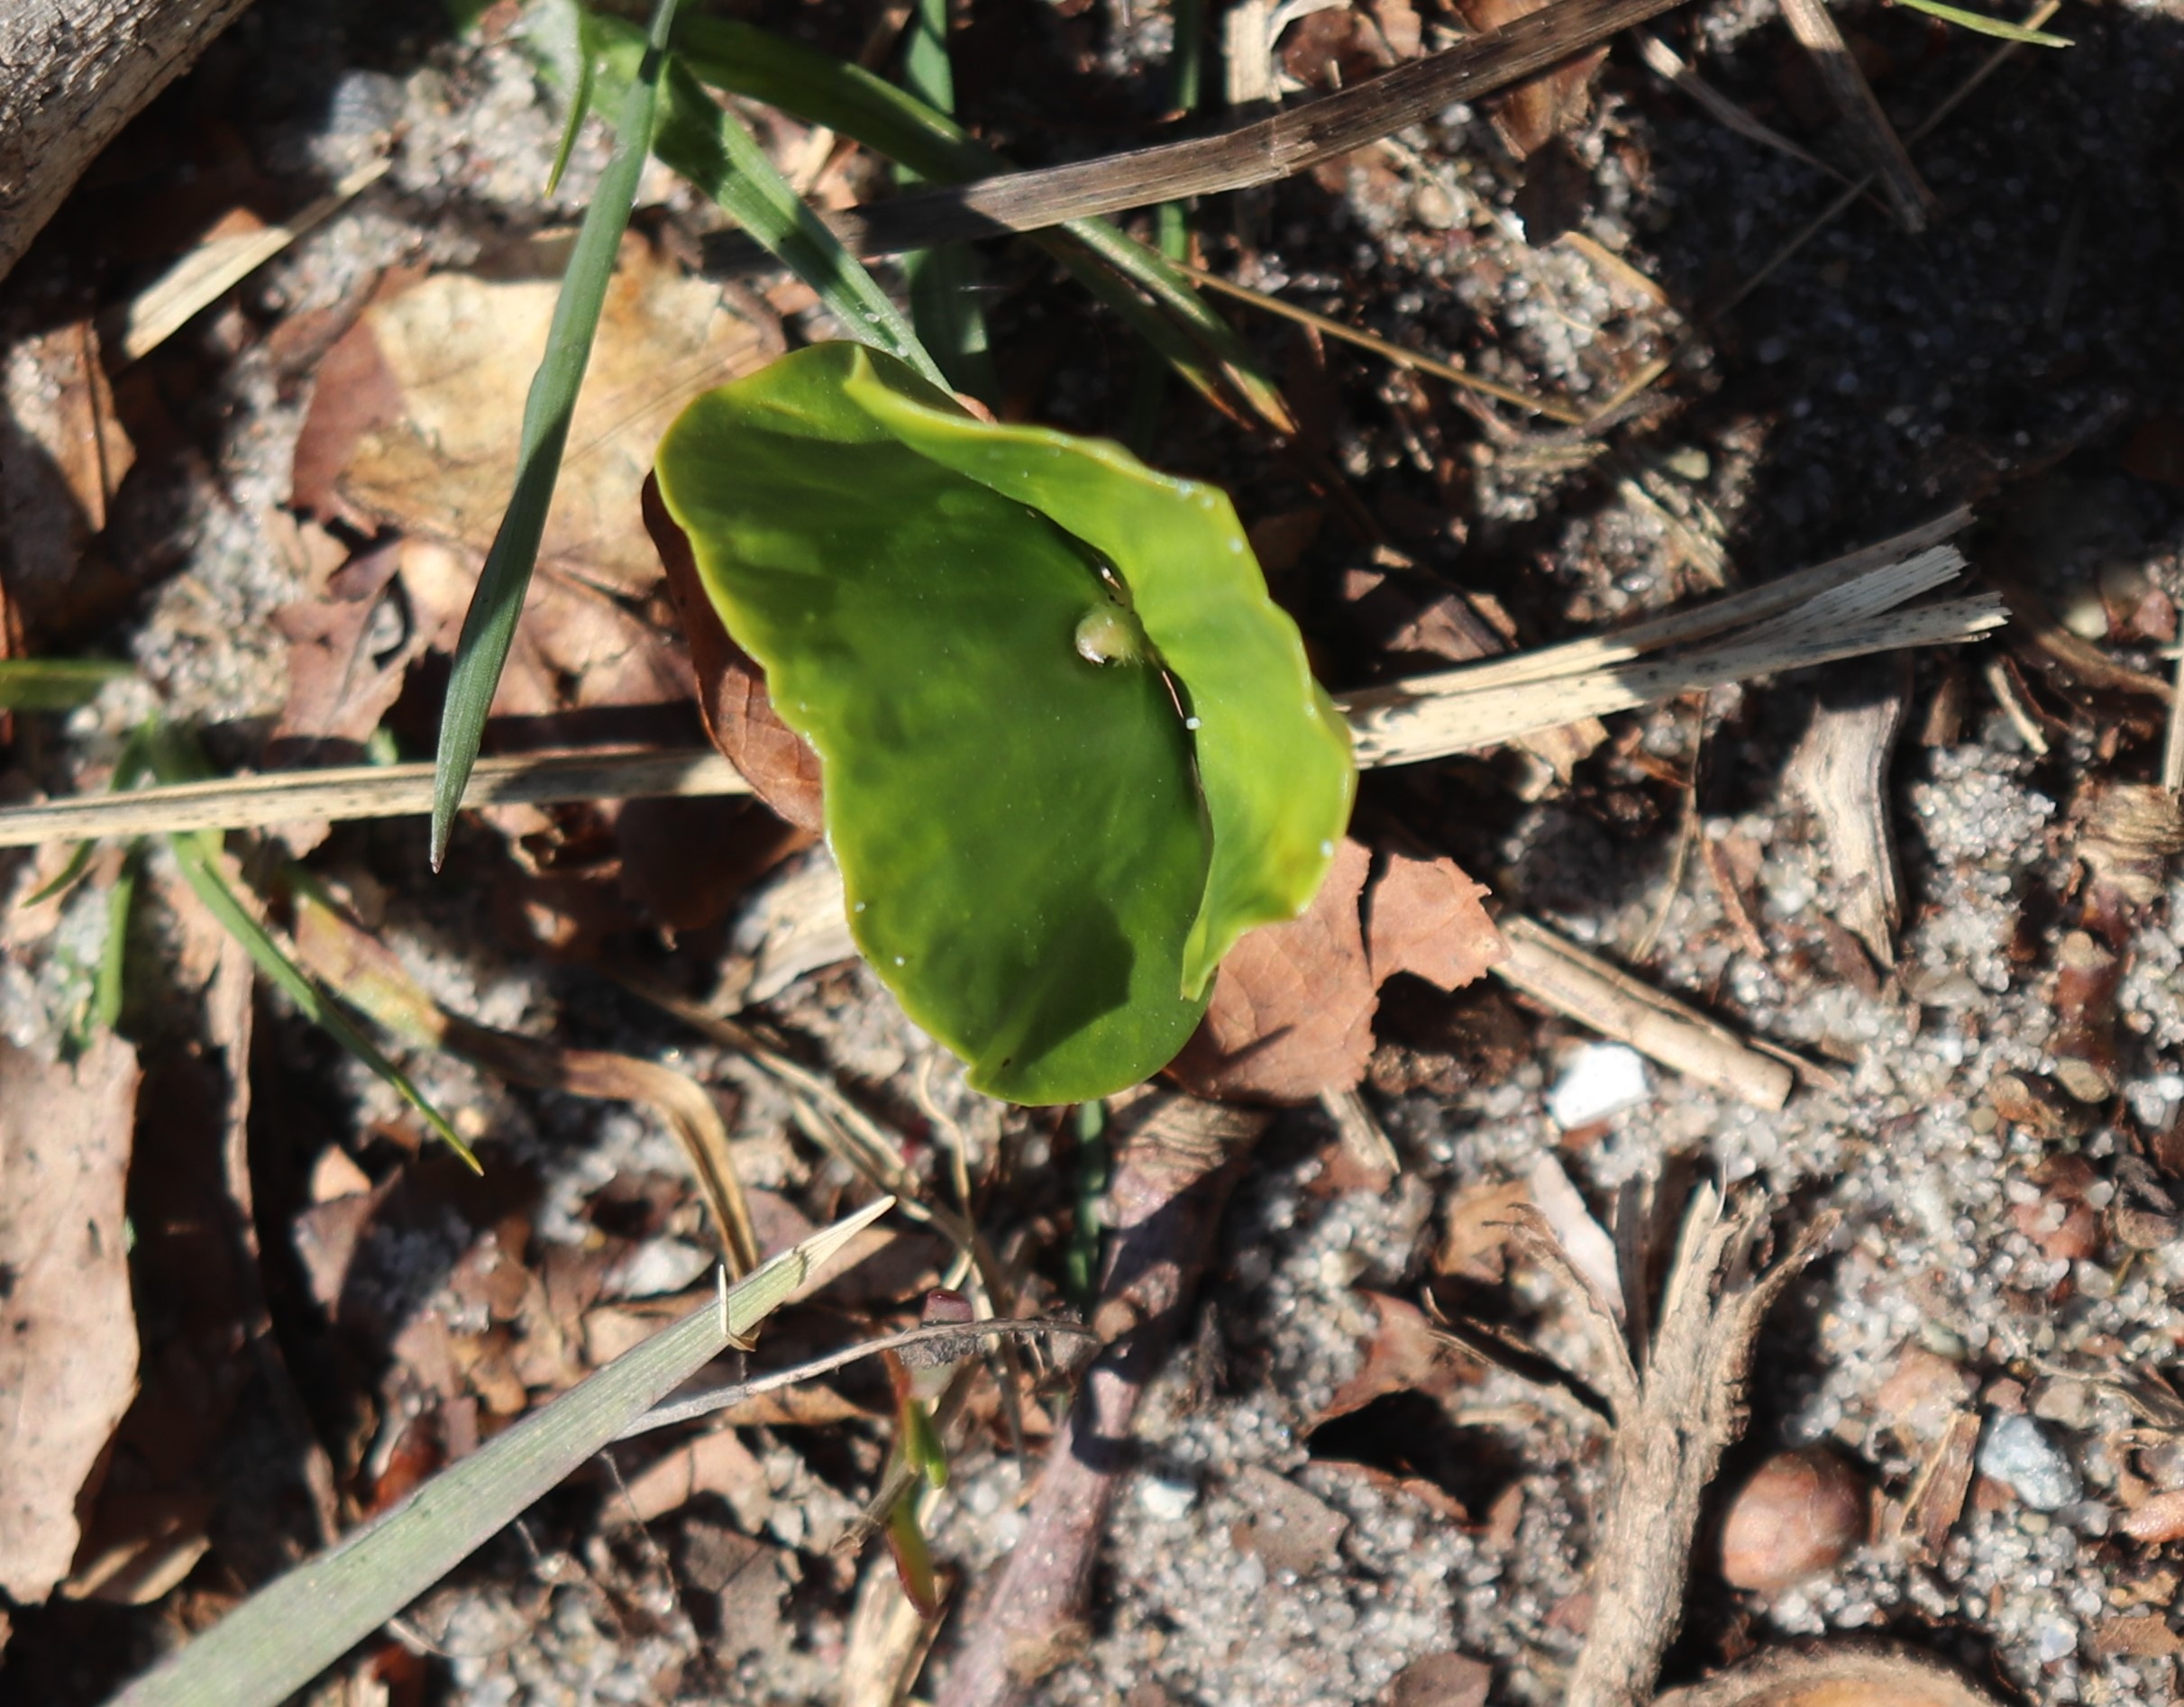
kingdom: Plantae
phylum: Tracheophyta
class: Magnoliopsida
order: Fagales
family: Fagaceae
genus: Fagus
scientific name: Fagus sylvatica
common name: Bøg
